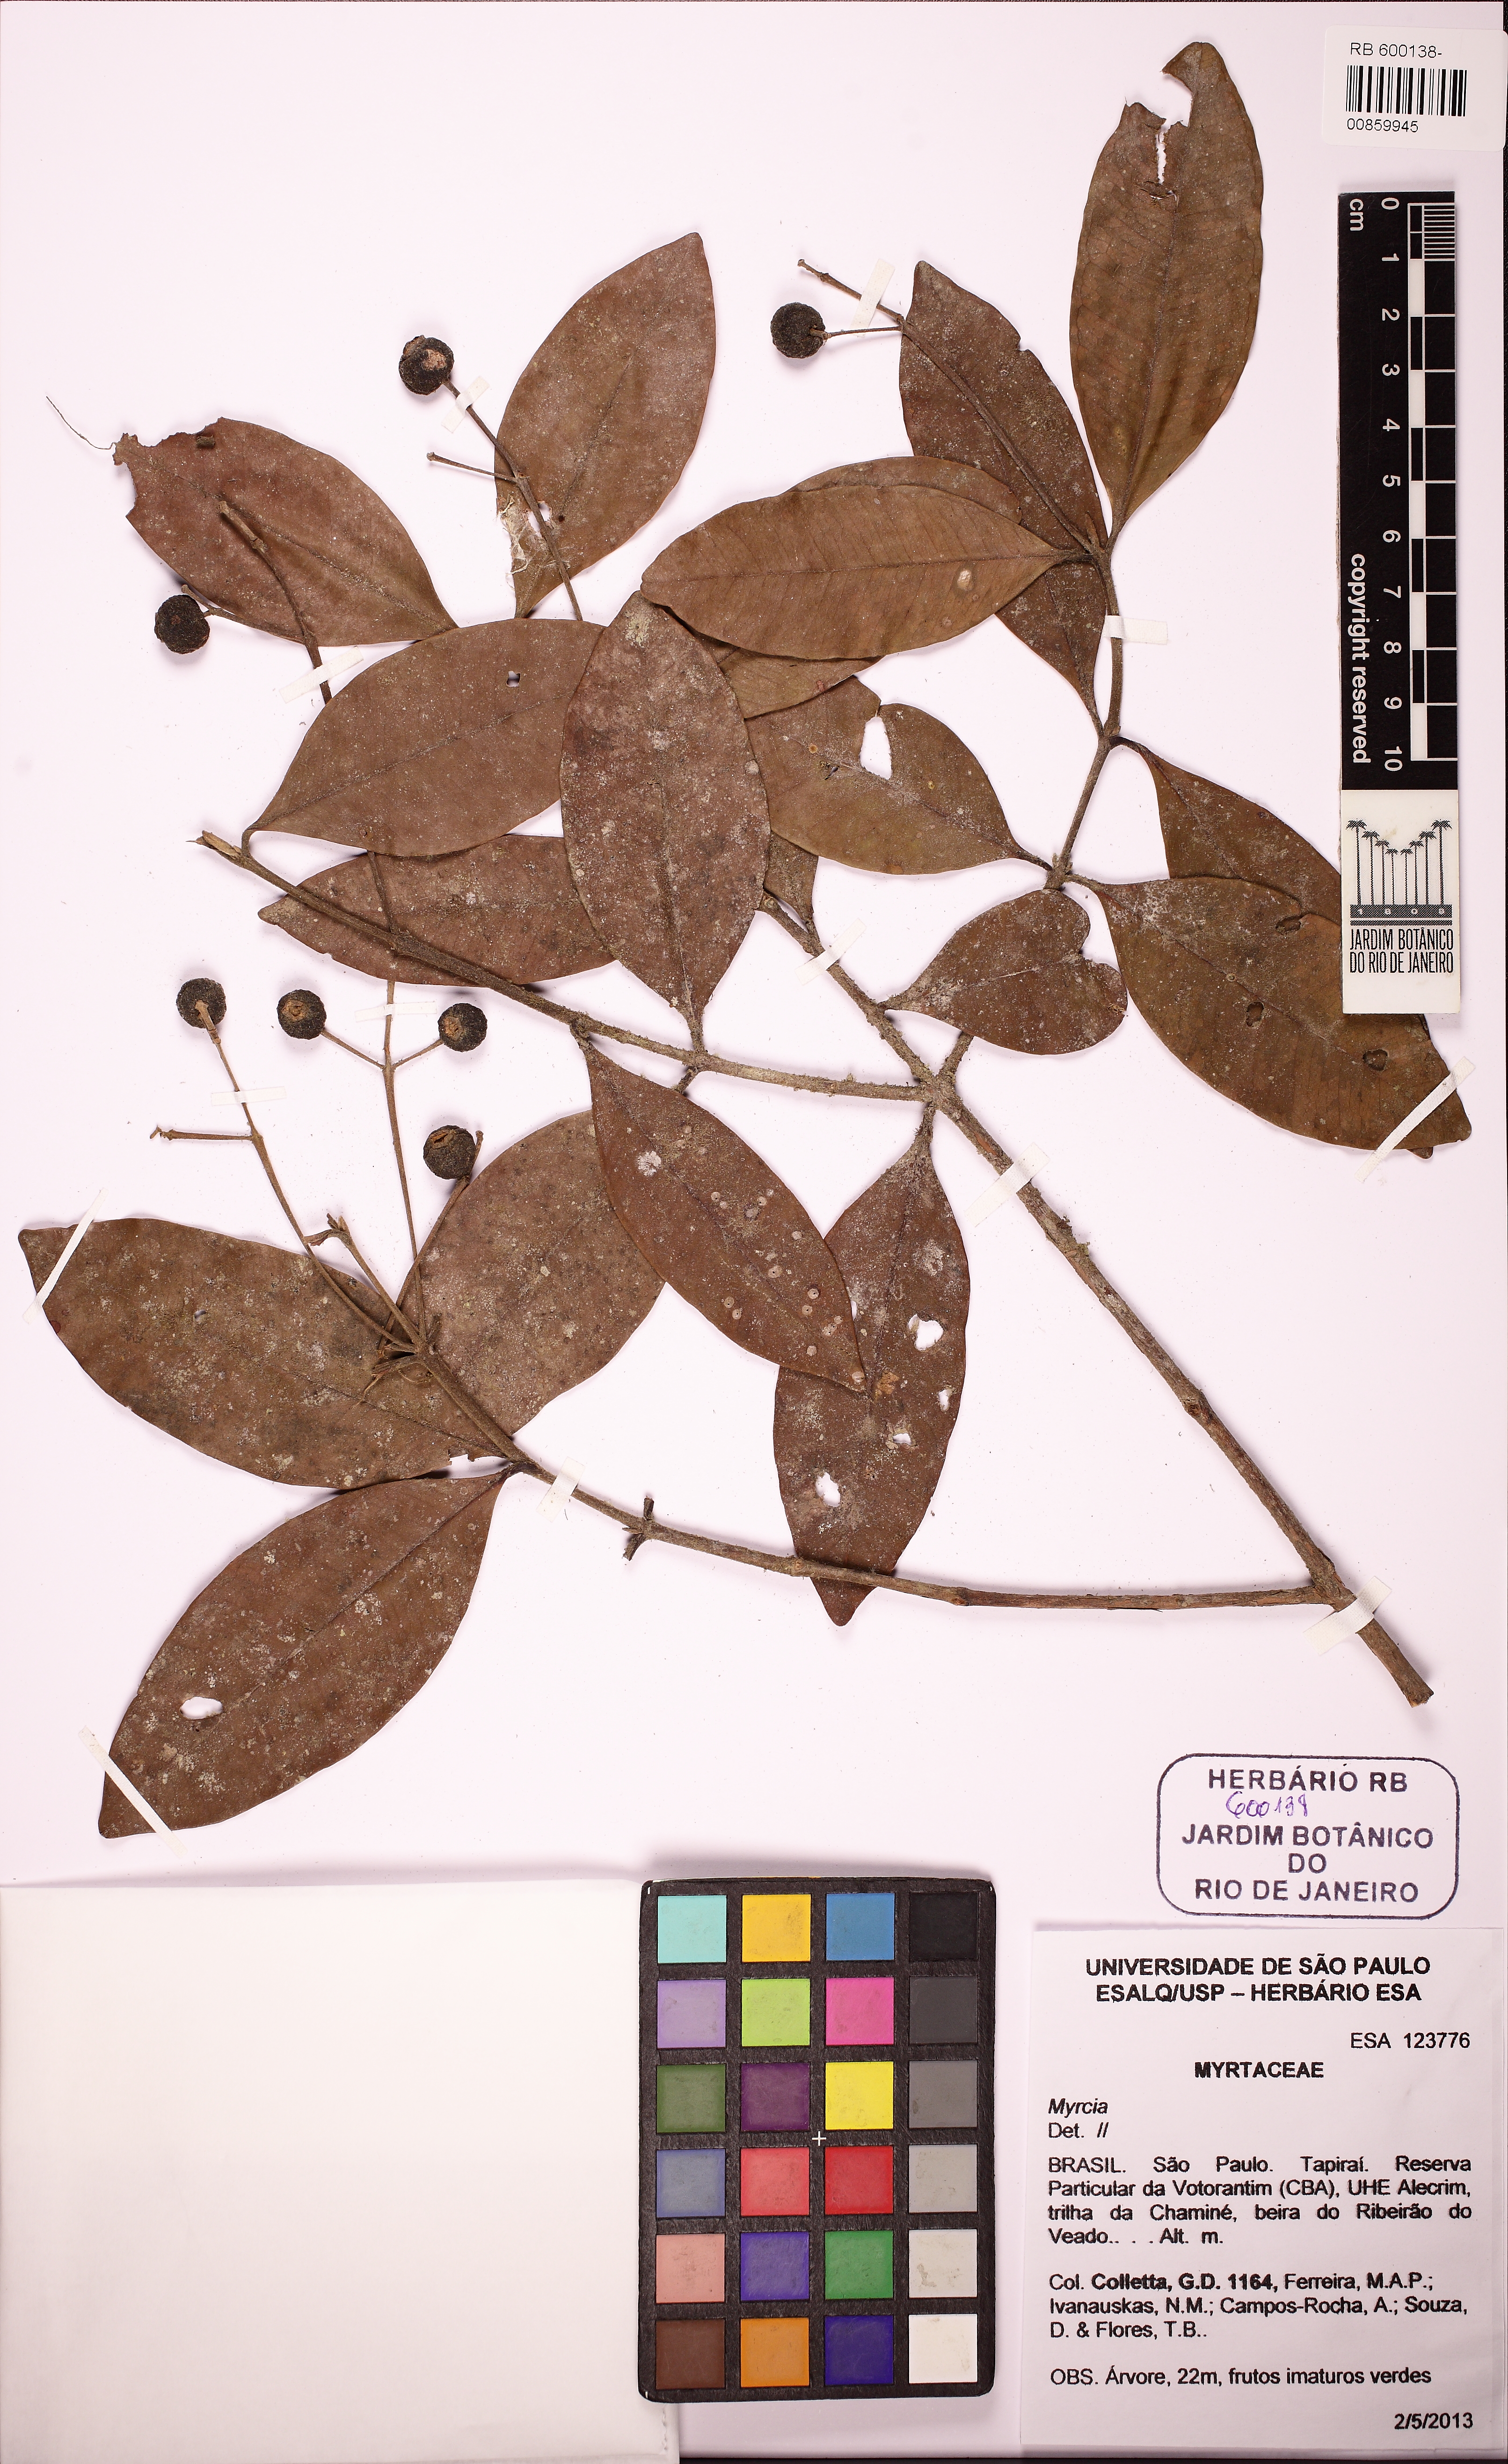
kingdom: Plantae
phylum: Tracheophyta
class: Magnoliopsida
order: Myrtales
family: Myrtaceae
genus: Myrcia
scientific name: Myrcia freyreissiana
